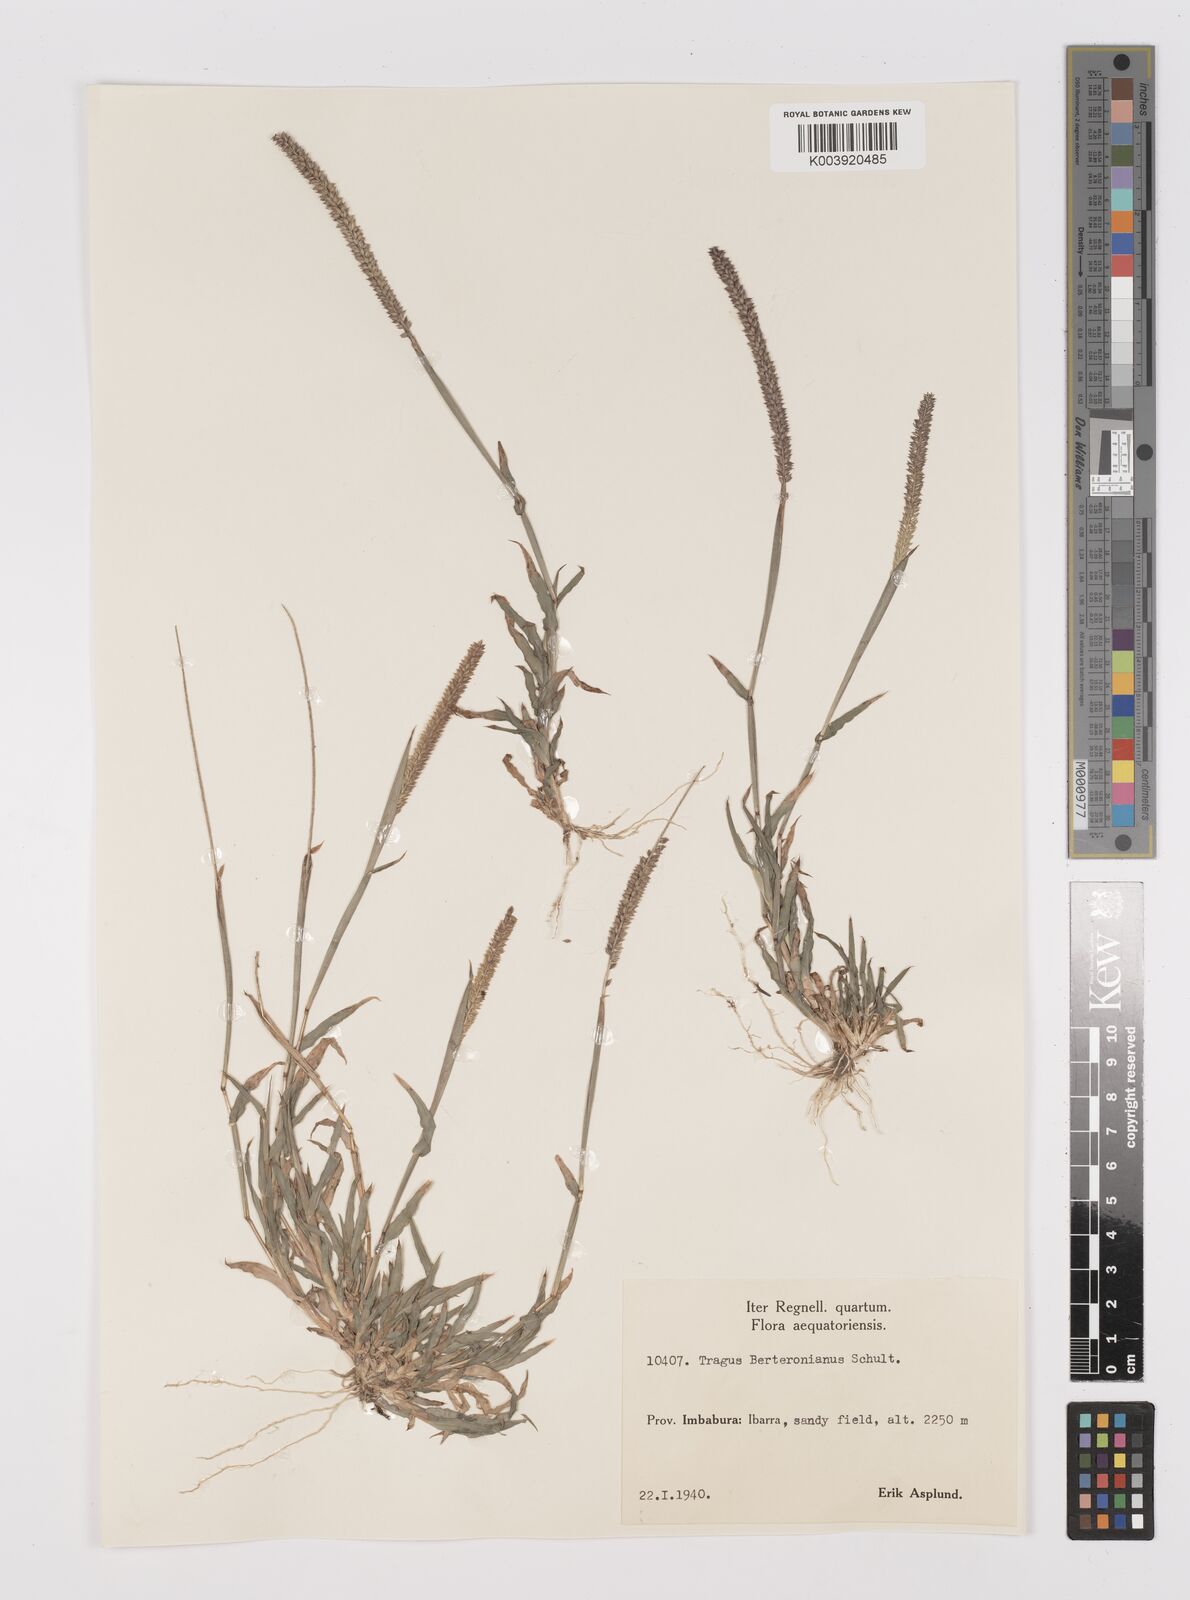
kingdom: Plantae
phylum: Tracheophyta
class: Liliopsida
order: Poales
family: Poaceae
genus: Tragus
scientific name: Tragus berteronianus
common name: African bur-grass
